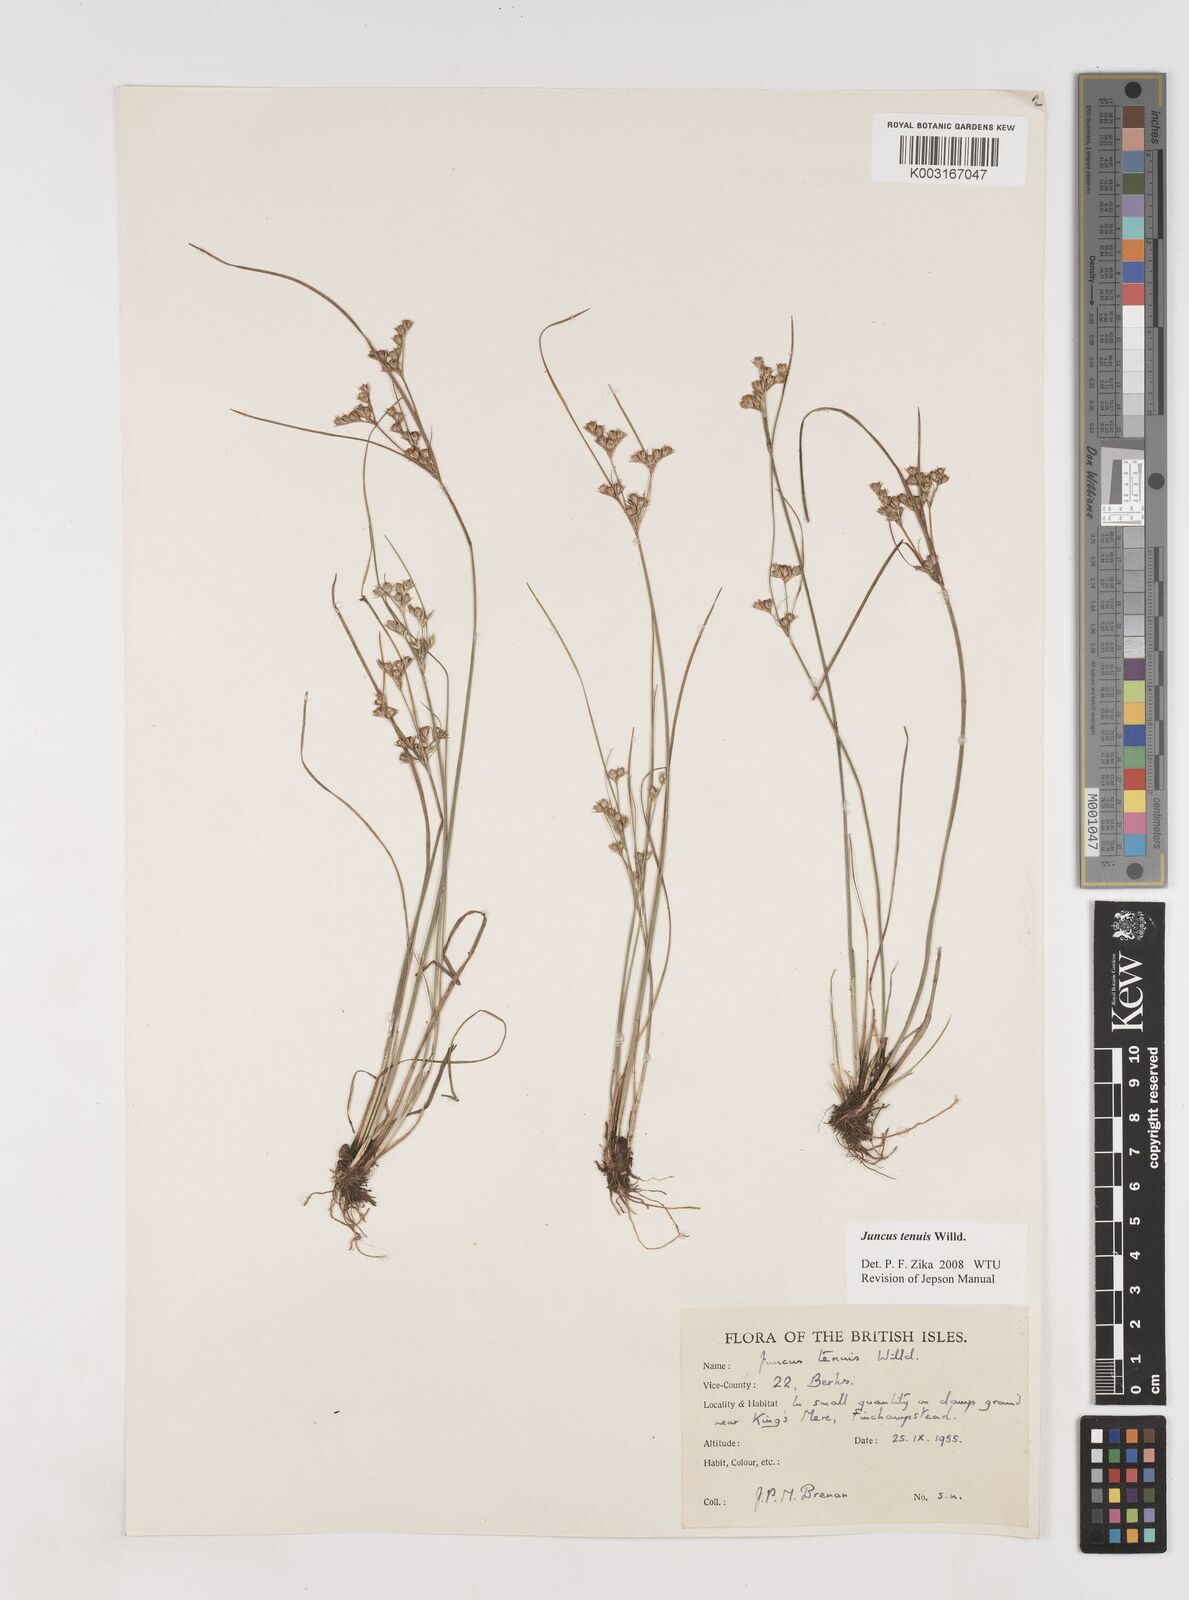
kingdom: Plantae
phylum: Tracheophyta
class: Liliopsida
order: Poales
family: Juncaceae
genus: Juncus
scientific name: Juncus tenuis
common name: Slender rush
